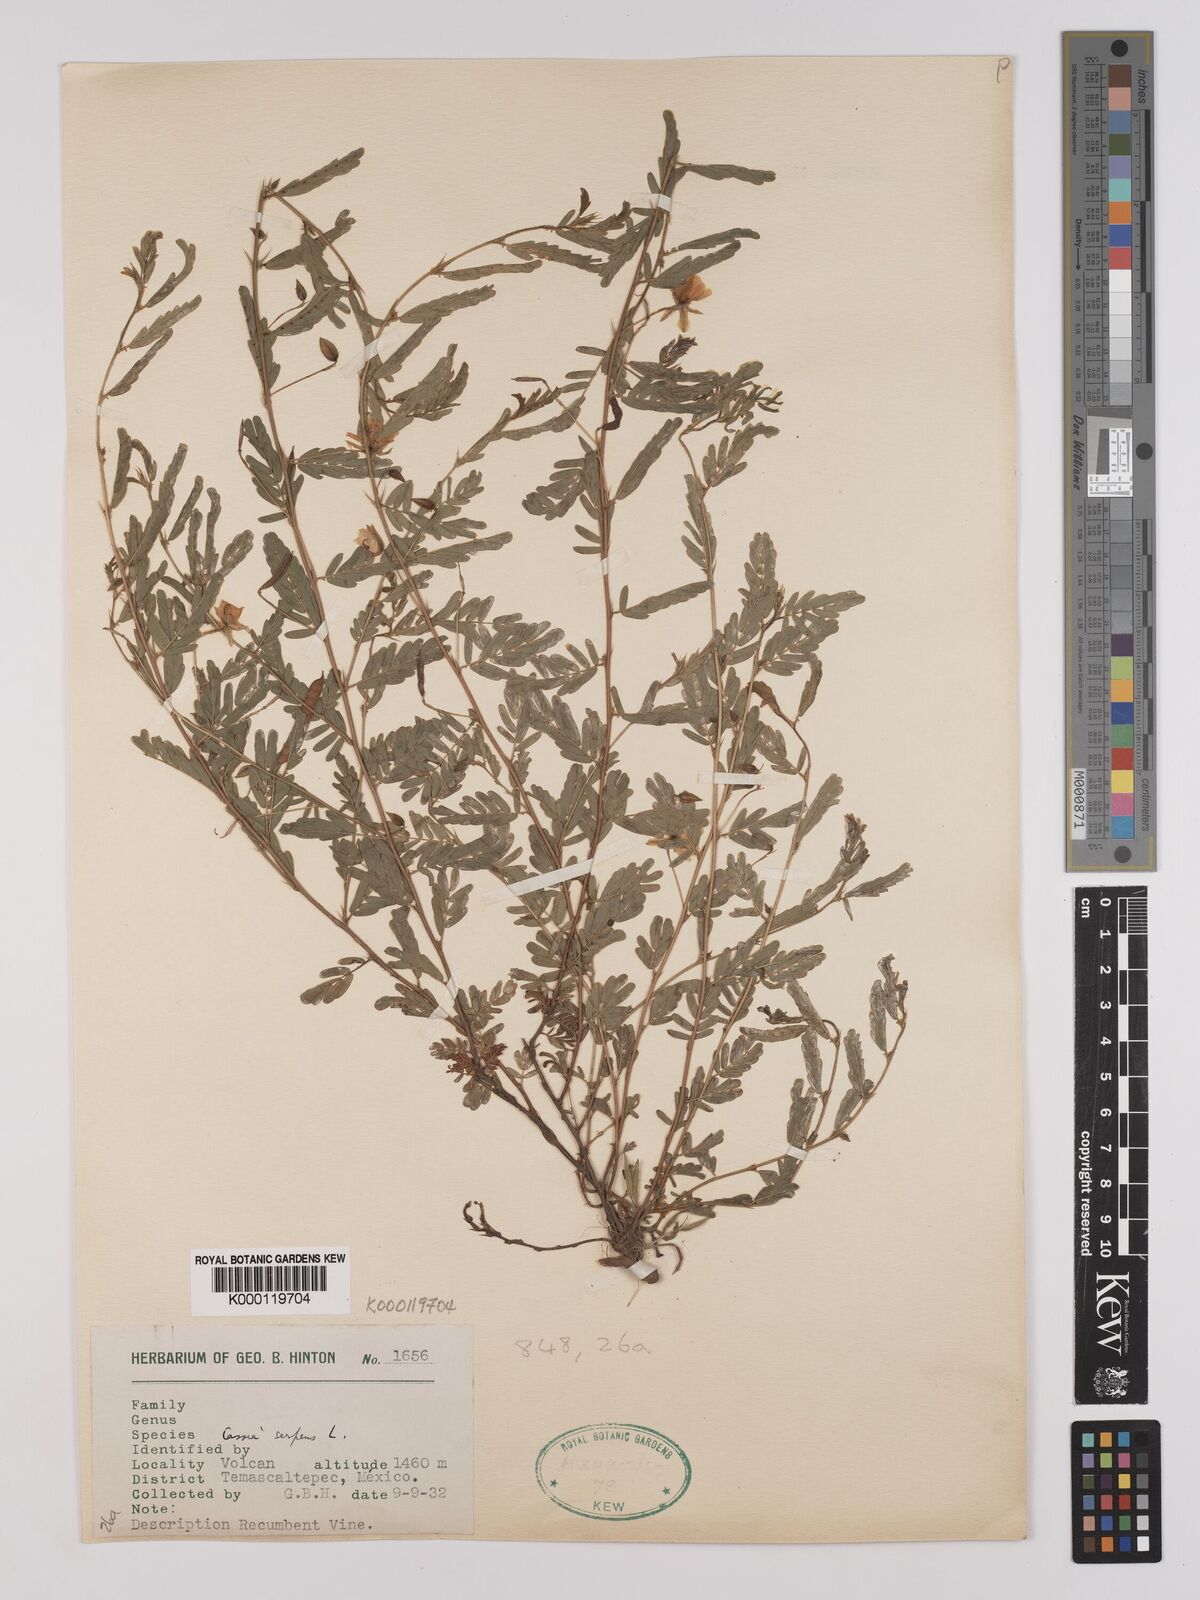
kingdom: Plantae
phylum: Tracheophyta
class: Magnoliopsida
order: Fabales
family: Fabaceae
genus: Chamaecrista
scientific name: Chamaecrista serpens
